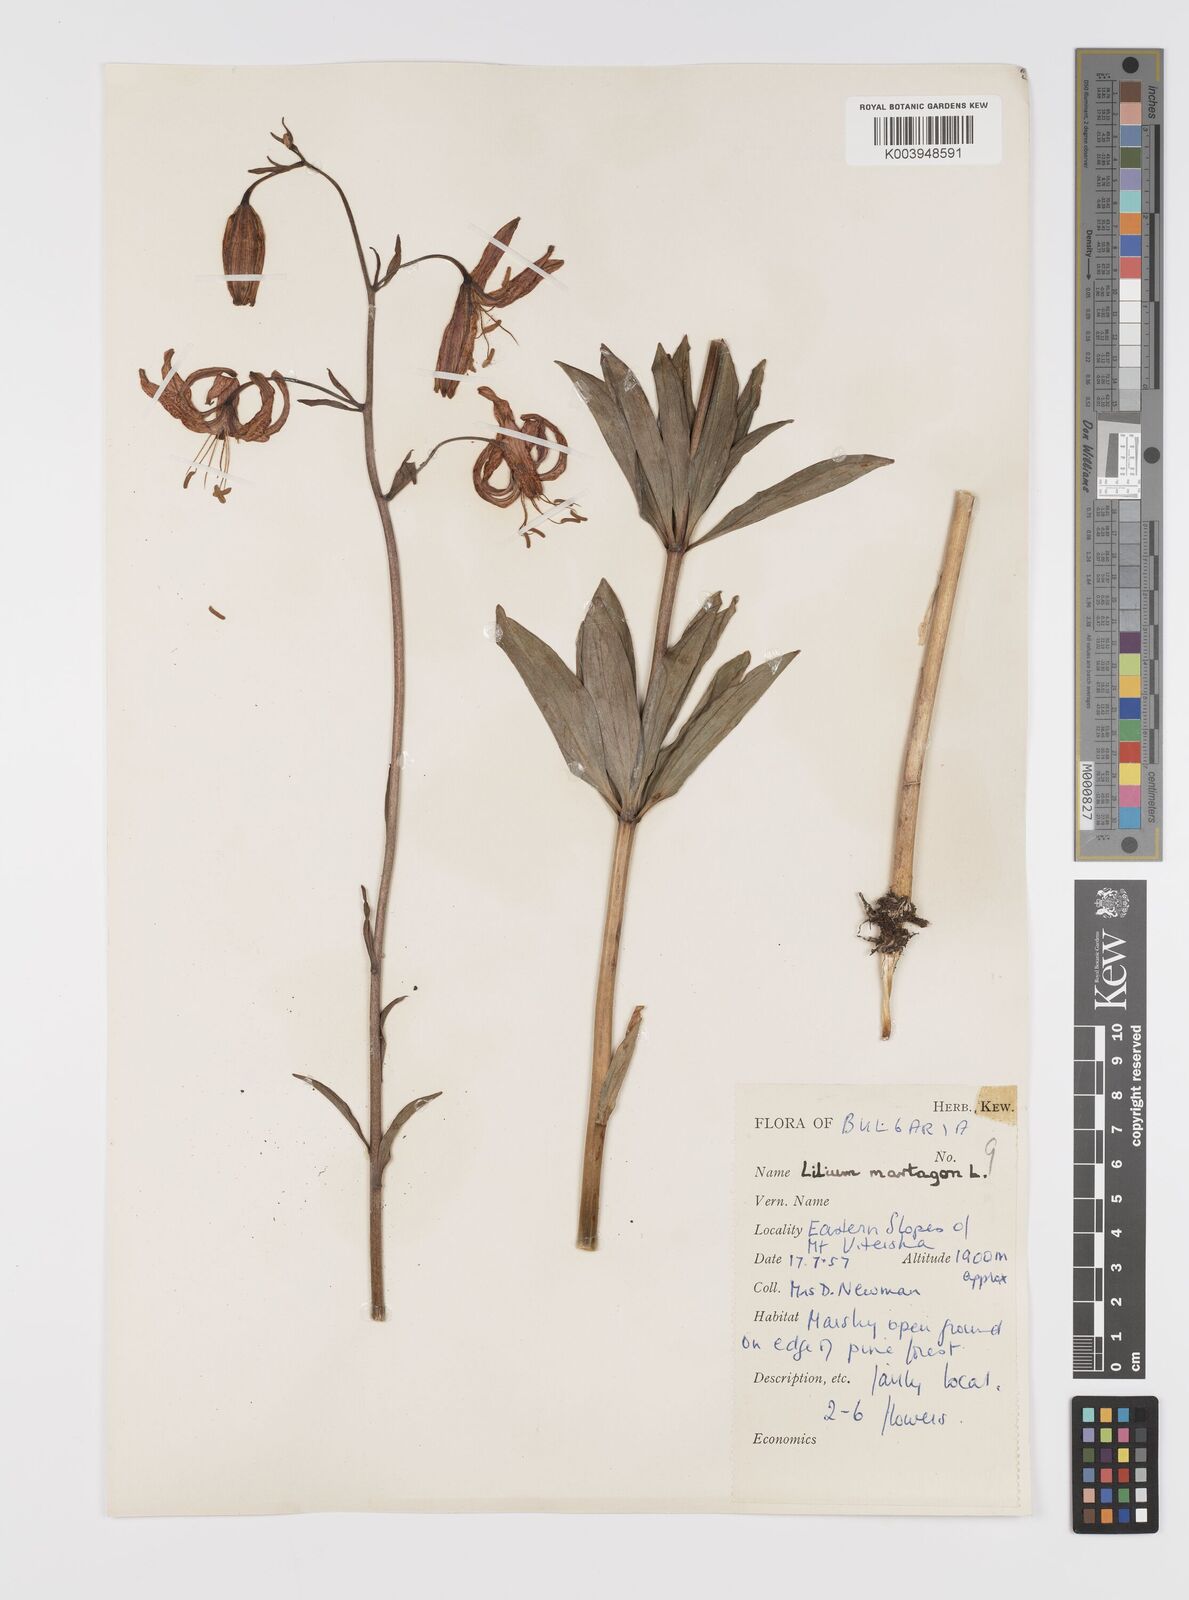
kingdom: Plantae
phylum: Tracheophyta
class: Liliopsida
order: Liliales
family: Liliaceae
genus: Lilium
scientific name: Lilium martagon
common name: Martagon lily
